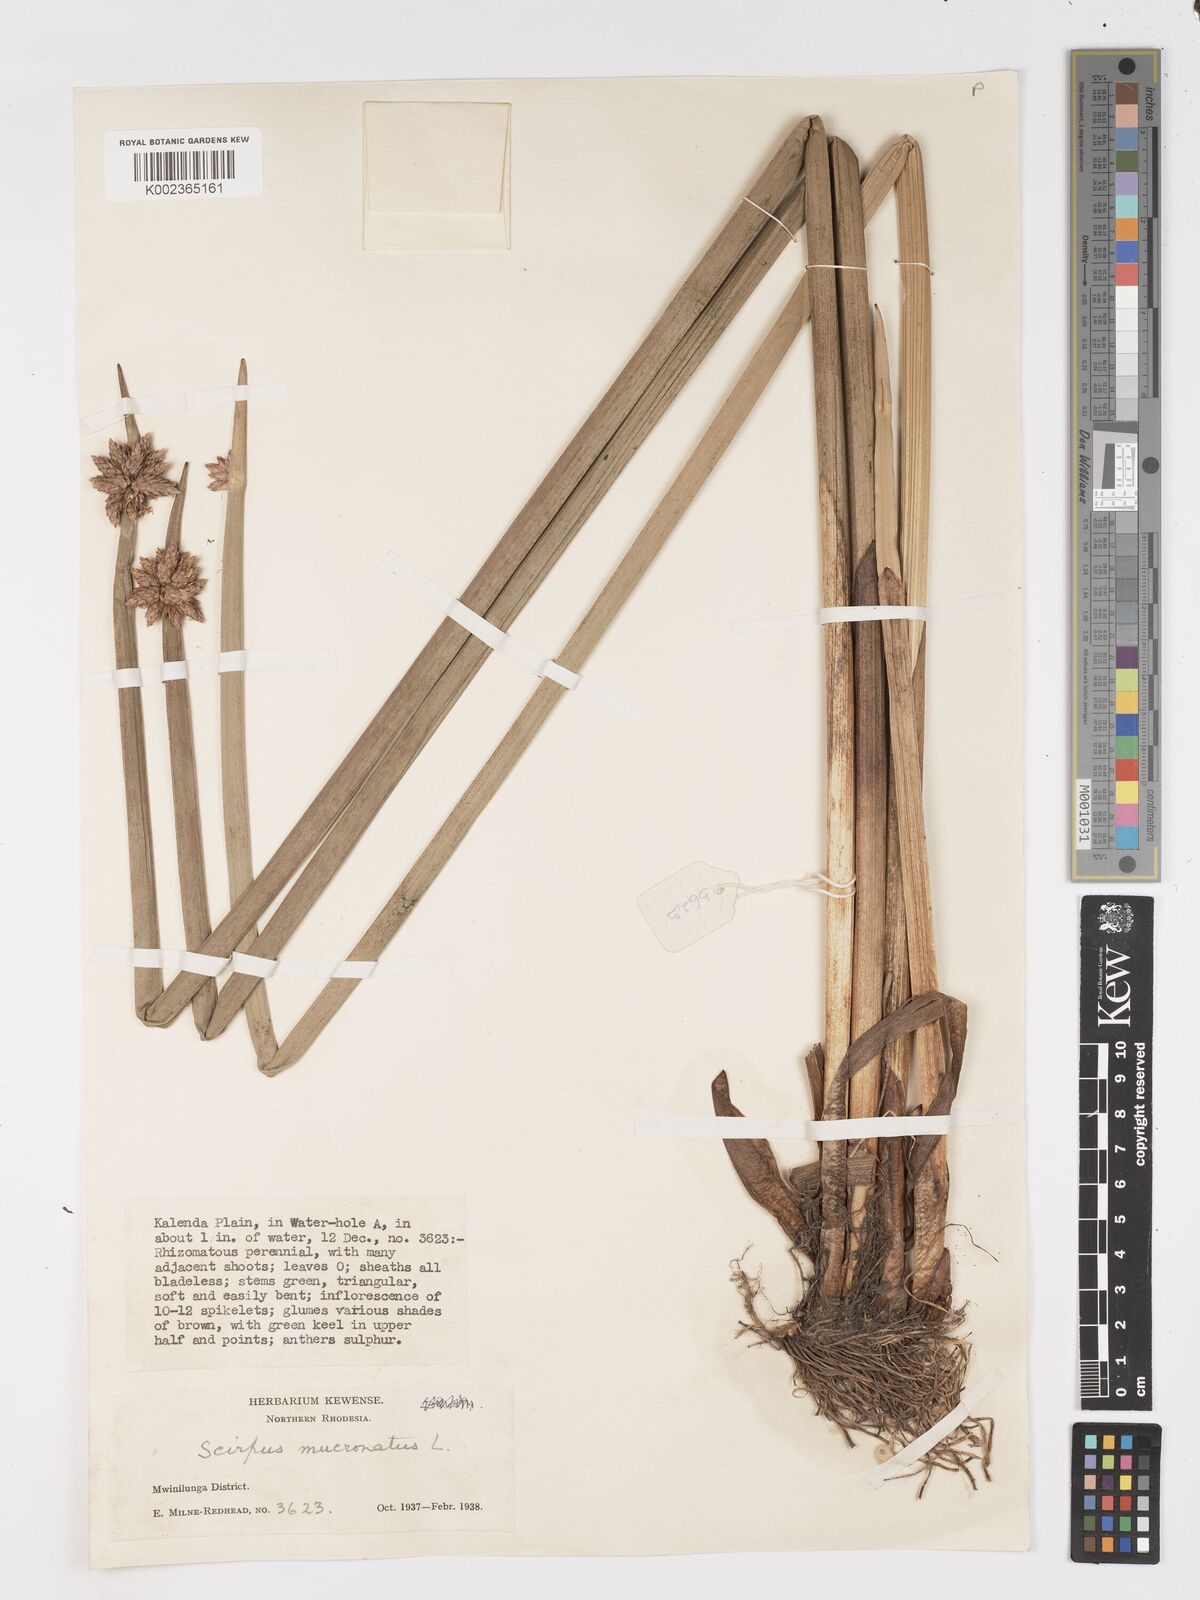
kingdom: Plantae
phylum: Tracheophyta
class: Liliopsida
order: Poales
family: Cyperaceae
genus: Schoenoplectiella
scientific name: Schoenoplectiella mucronata
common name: Bog bulrush
